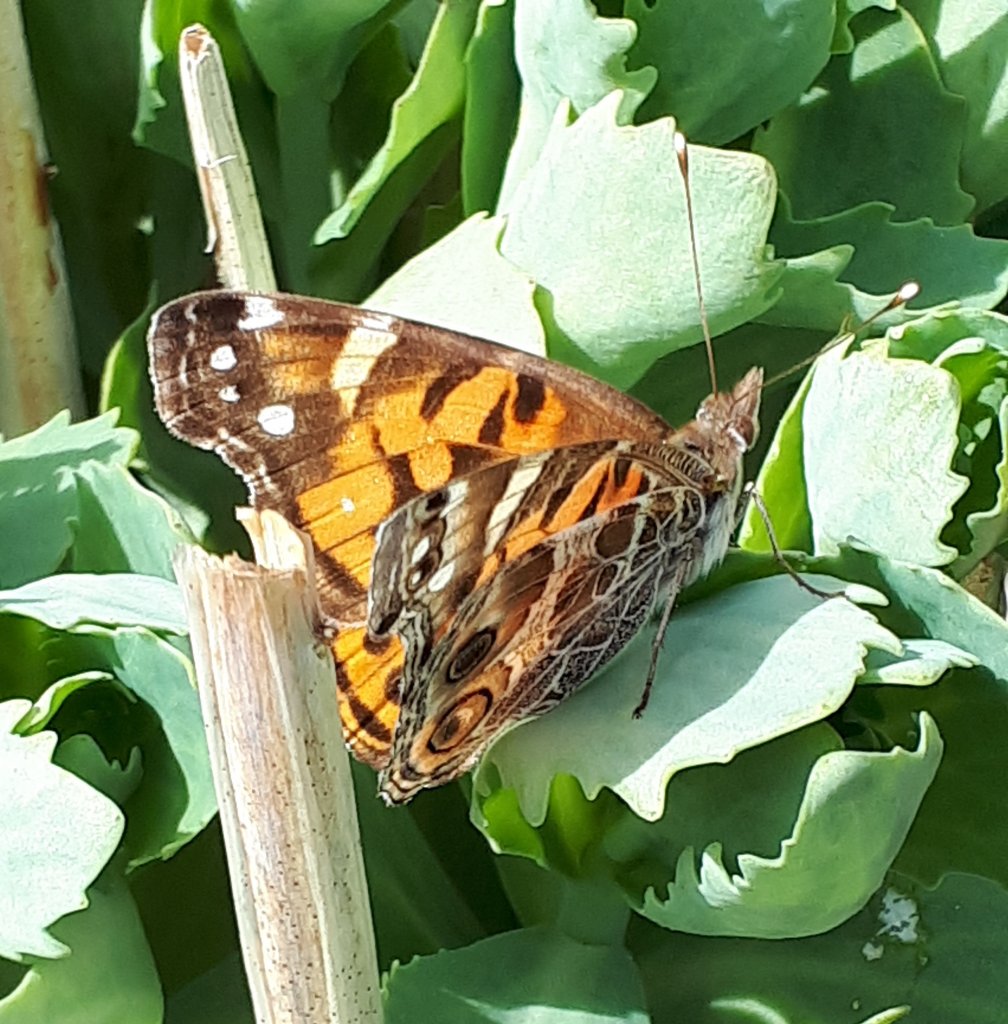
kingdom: Animalia
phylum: Arthropoda
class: Insecta
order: Lepidoptera
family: Nymphalidae
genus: Vanessa
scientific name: Vanessa virginiensis
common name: American Lady
